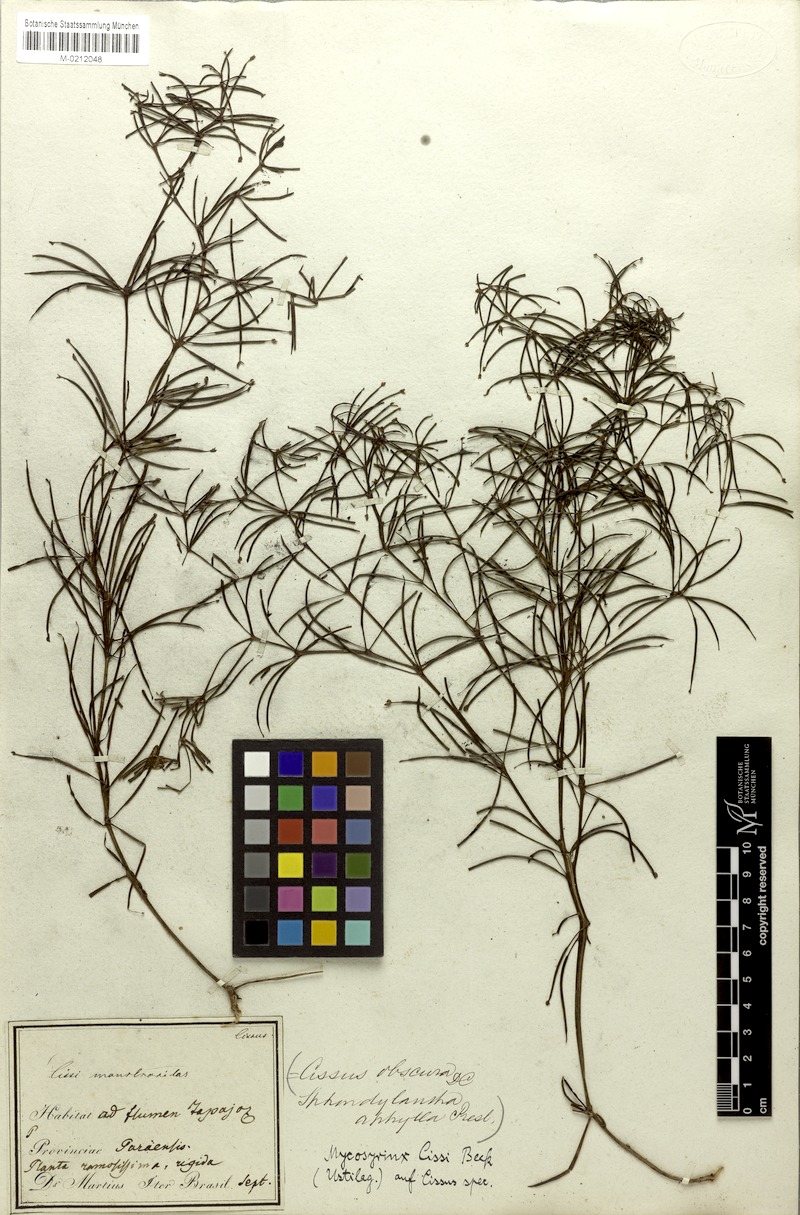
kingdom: Plantae
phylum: Tracheophyta
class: Magnoliopsida
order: Vitales
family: Vitaceae
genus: Cissus
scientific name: Cissus
